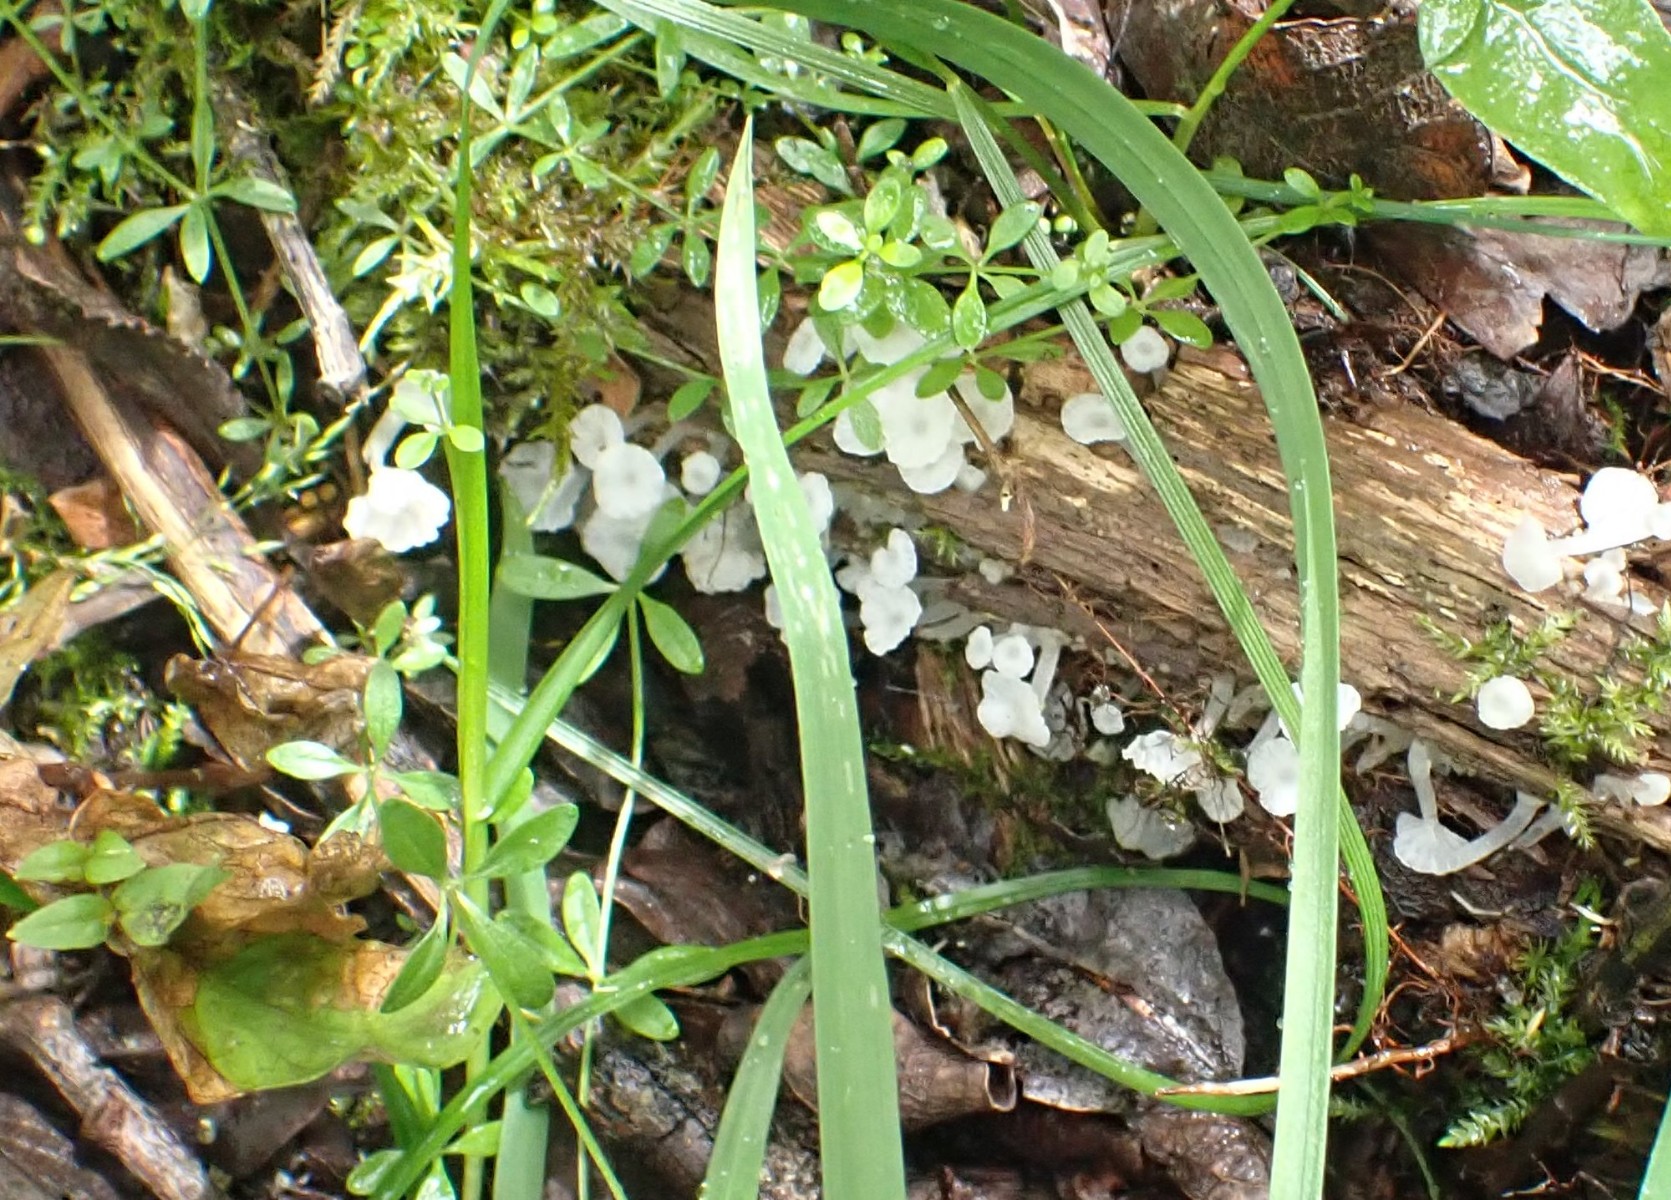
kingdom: Fungi
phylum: Basidiomycota
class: Agaricomycetes
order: Agaricales
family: Tricholomataceae
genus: Delicatula
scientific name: Delicatula integrella
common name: slørhuesvamp
